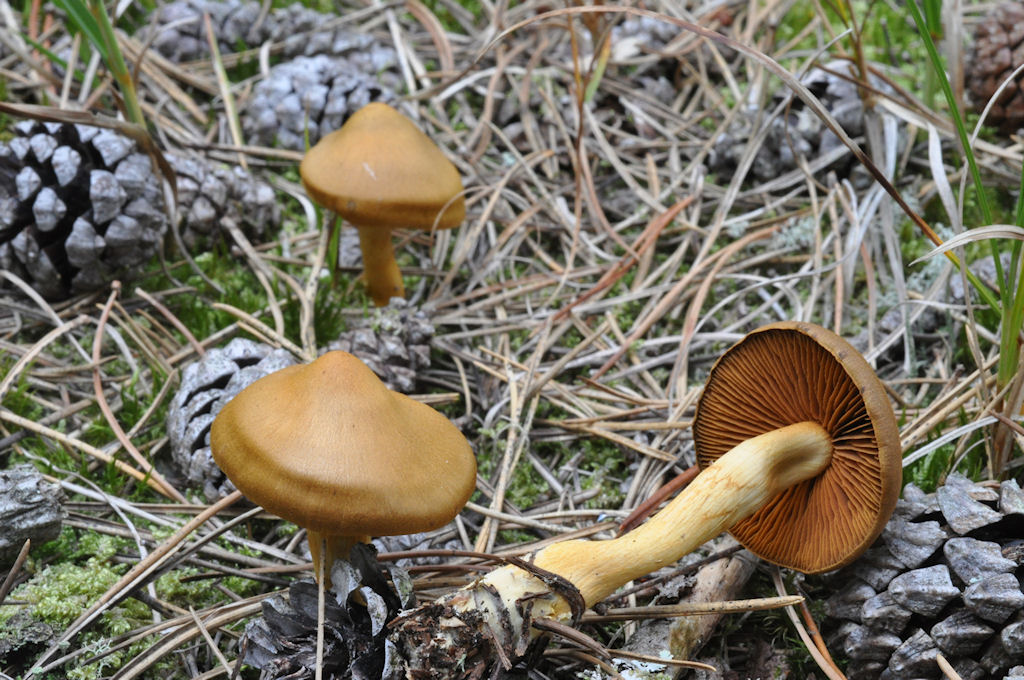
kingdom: Fungi
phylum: Basidiomycota
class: Agaricomycetes
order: Agaricales
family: Cortinariaceae
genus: Cortinarius
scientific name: Cortinarius cinnamomeus
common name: kanel-slørhat
